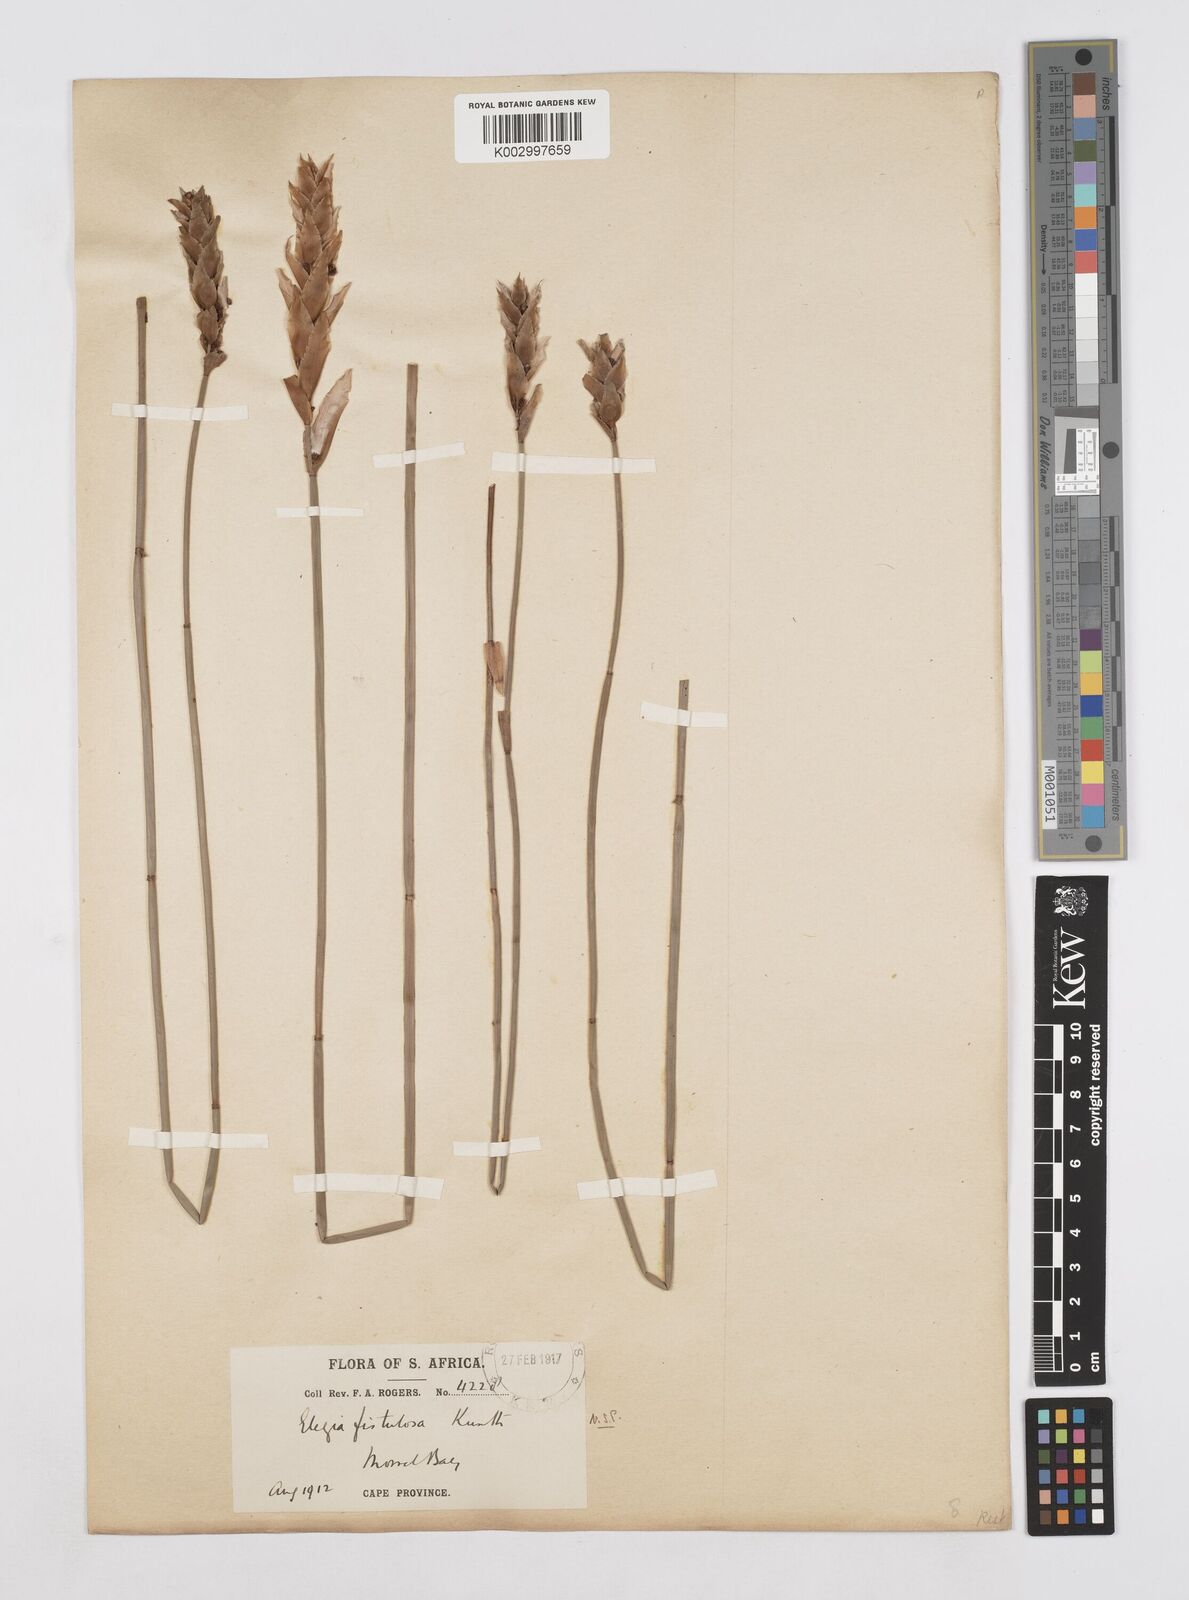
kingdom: Plantae
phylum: Tracheophyta
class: Liliopsida
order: Poales
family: Restionaceae
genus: Elegia
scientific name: Elegia fistulosa
